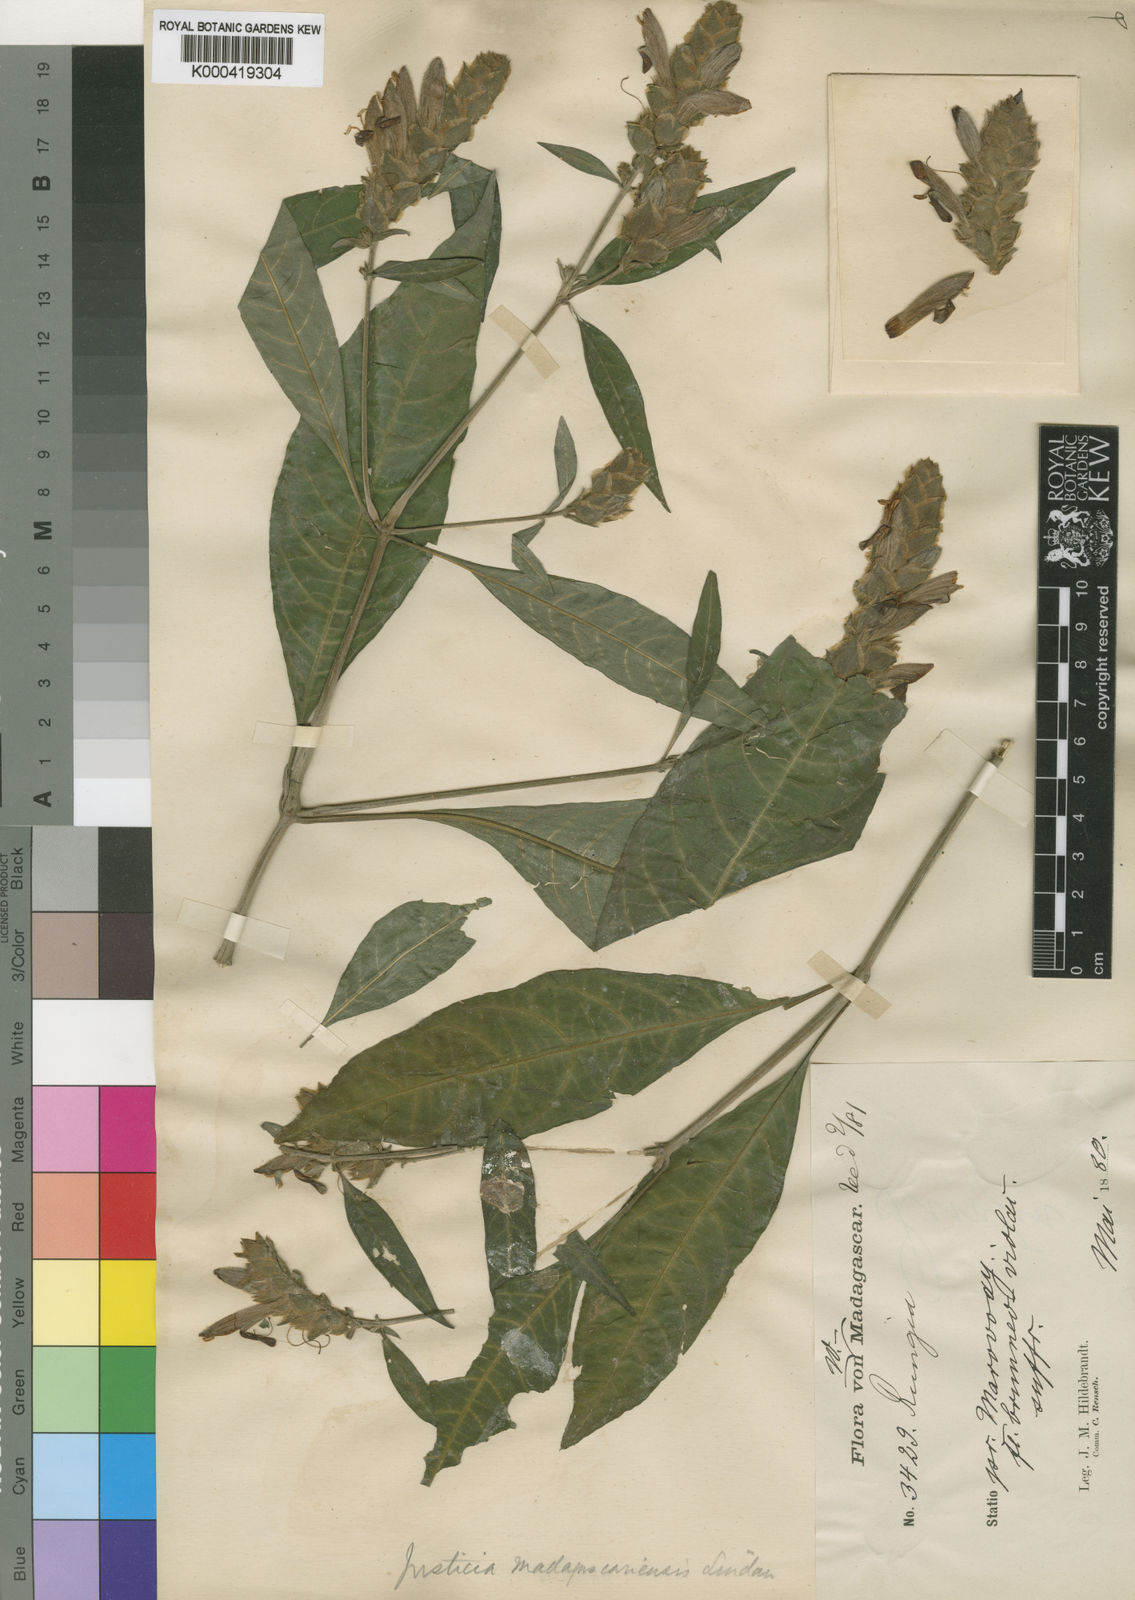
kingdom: Plantae
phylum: Tracheophyta
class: Magnoliopsida
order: Lamiales
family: Acanthaceae
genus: Justicia
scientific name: Justicia madagascariensis
